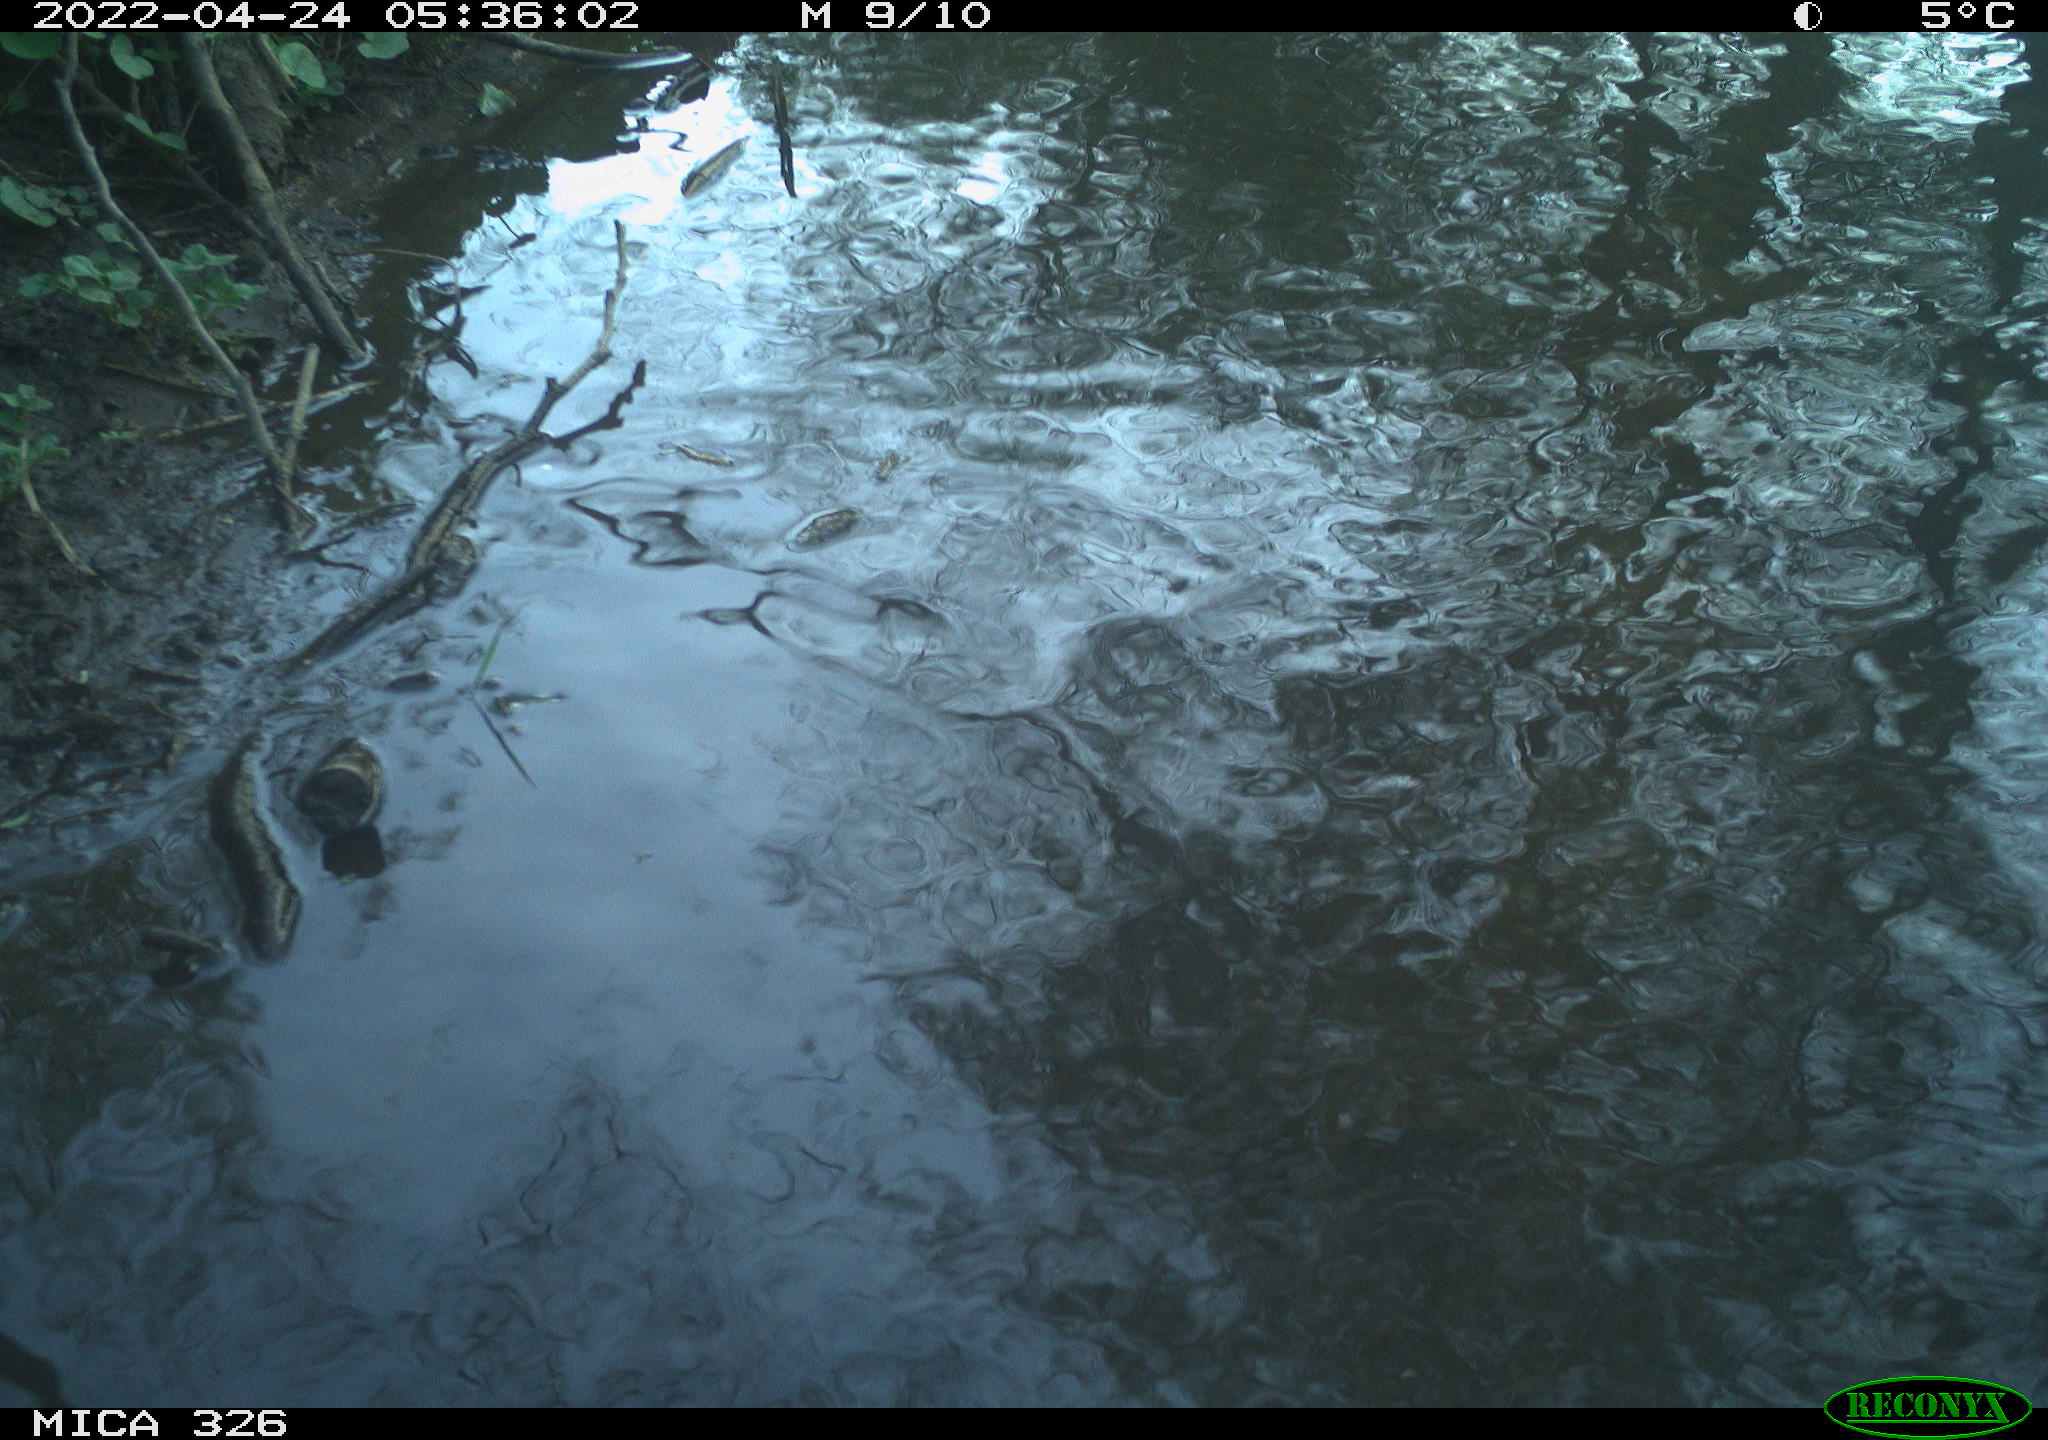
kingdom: Animalia
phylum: Chordata
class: Mammalia
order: Rodentia
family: Cricetidae
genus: Ondatra
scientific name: Ondatra zibethicus
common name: Muskrat
